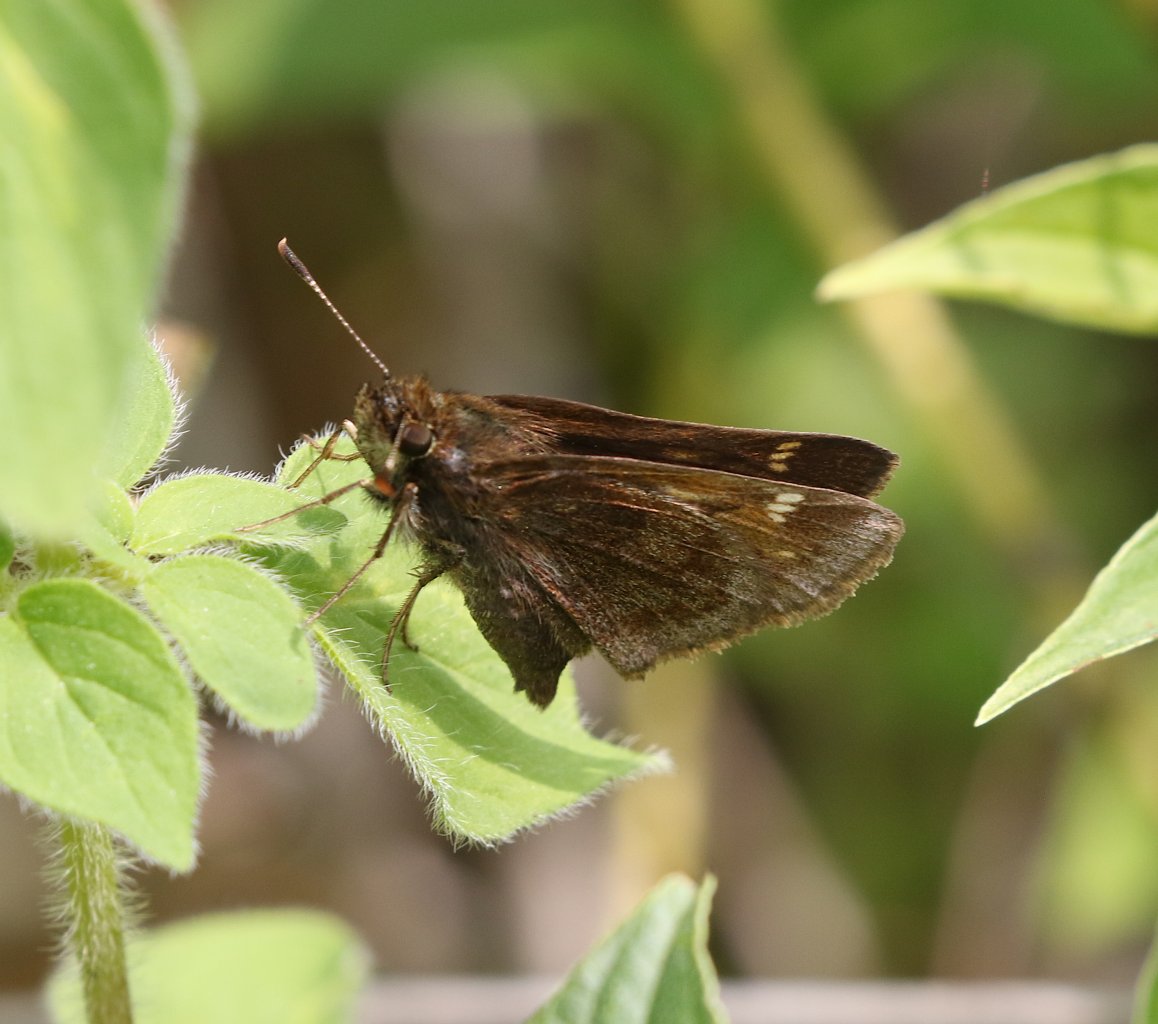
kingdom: Animalia
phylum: Arthropoda
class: Insecta
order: Lepidoptera
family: Hesperiidae
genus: Lon
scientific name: Lon hobomok
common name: Hobomok Skipper
